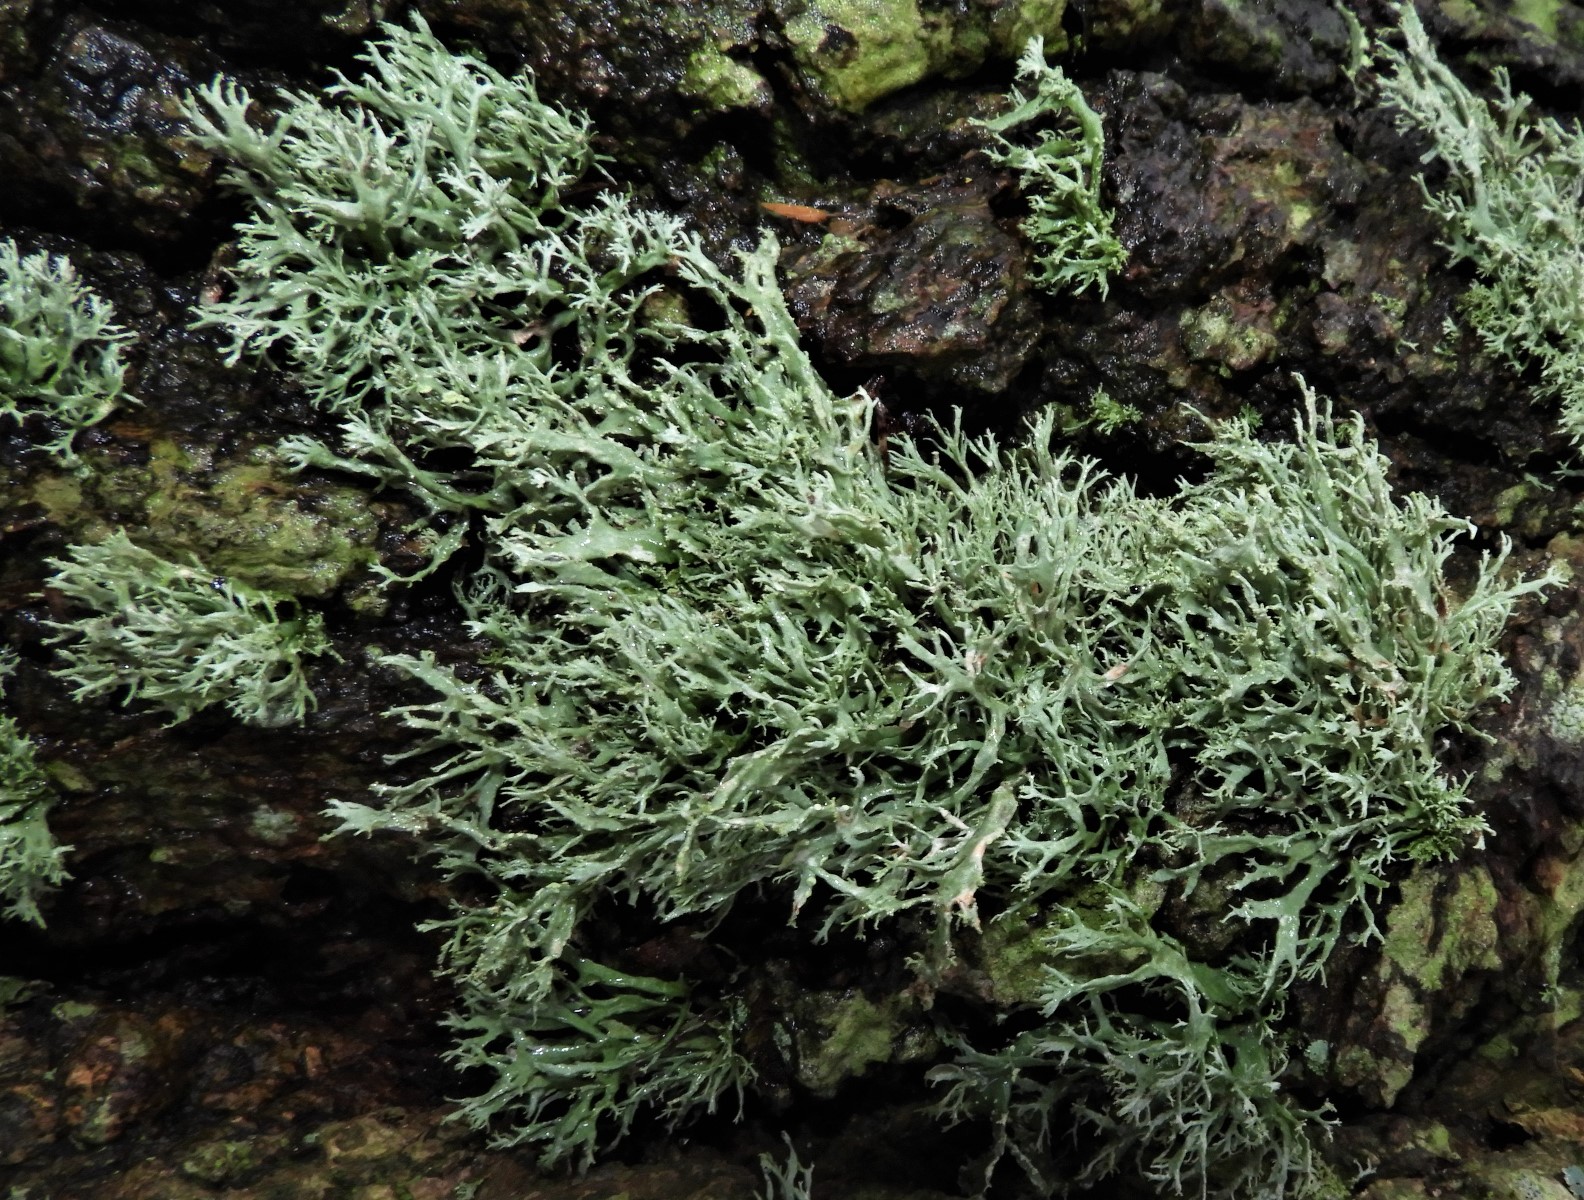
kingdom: Fungi
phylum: Ascomycota
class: Lecanoromycetes
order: Lecanorales
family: Ramalinaceae
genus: Ramalina
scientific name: Ramalina farinacea
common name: melet grenlav
